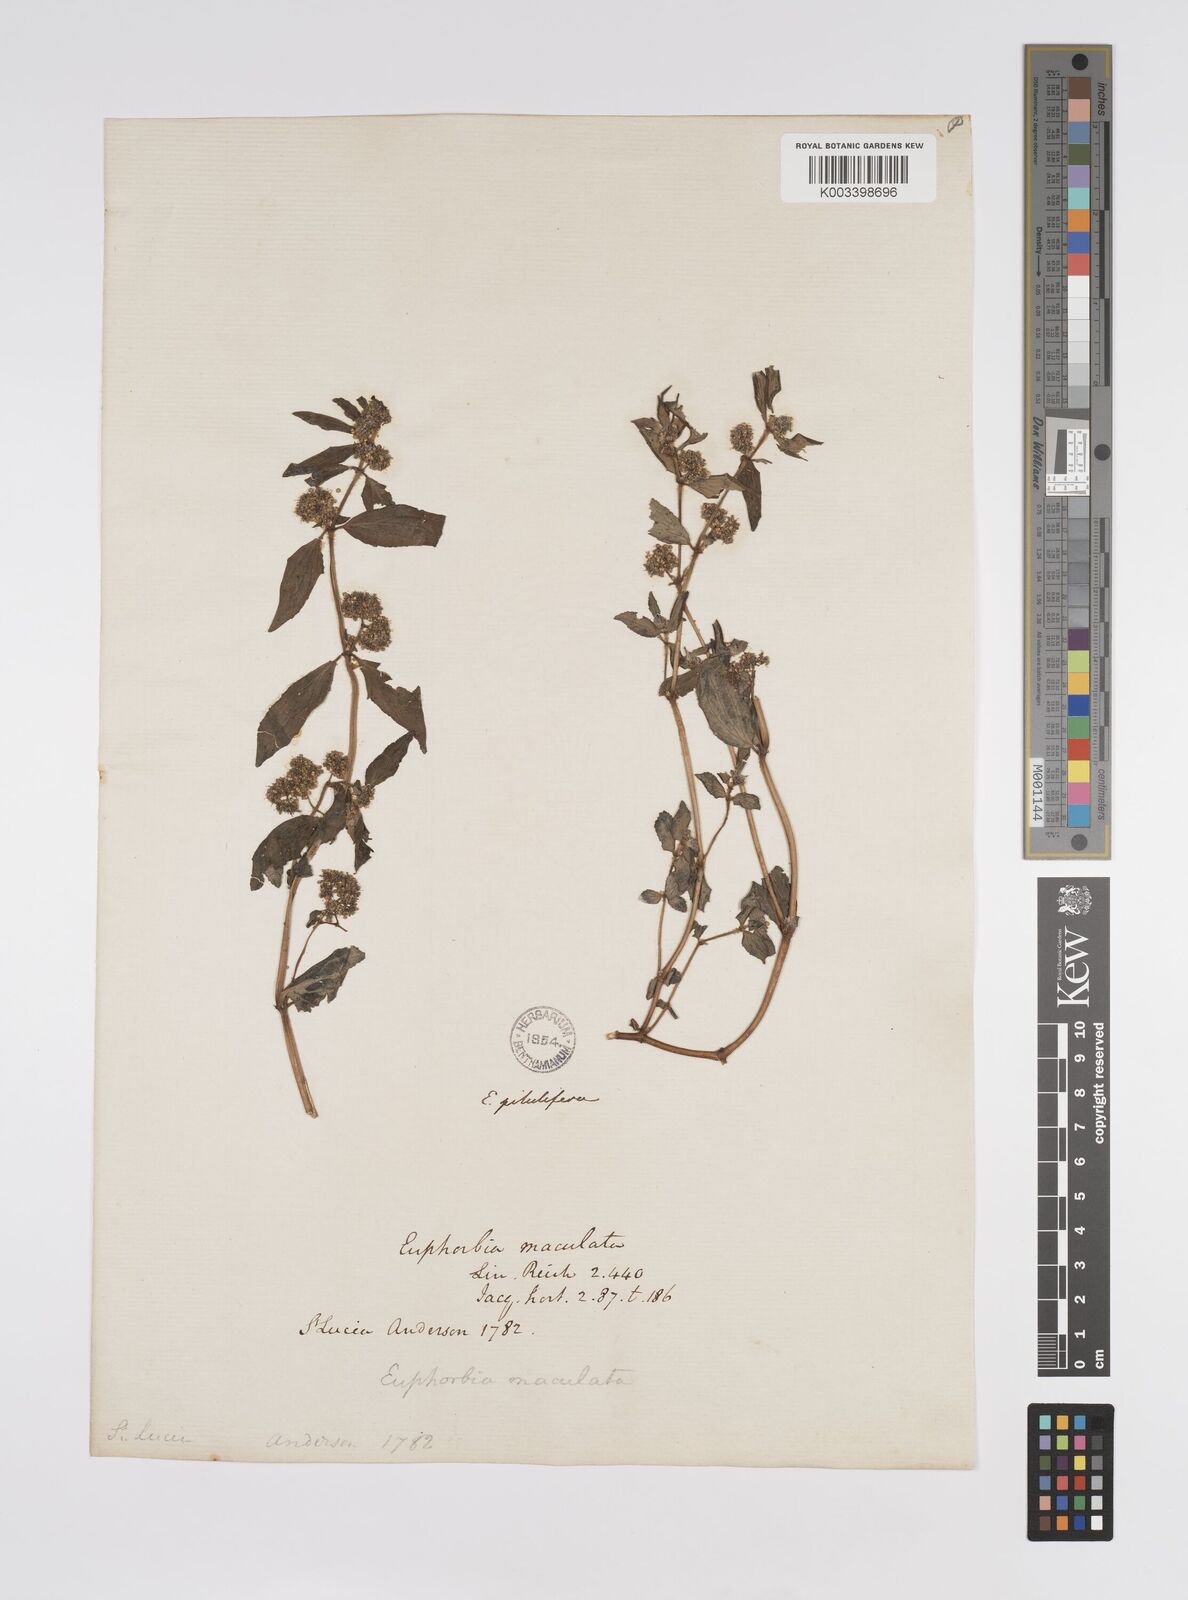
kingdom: Plantae
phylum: Tracheophyta
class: Magnoliopsida
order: Malpighiales
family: Euphorbiaceae
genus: Euphorbia
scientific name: Euphorbia hirta
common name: Pillpod sandmat
